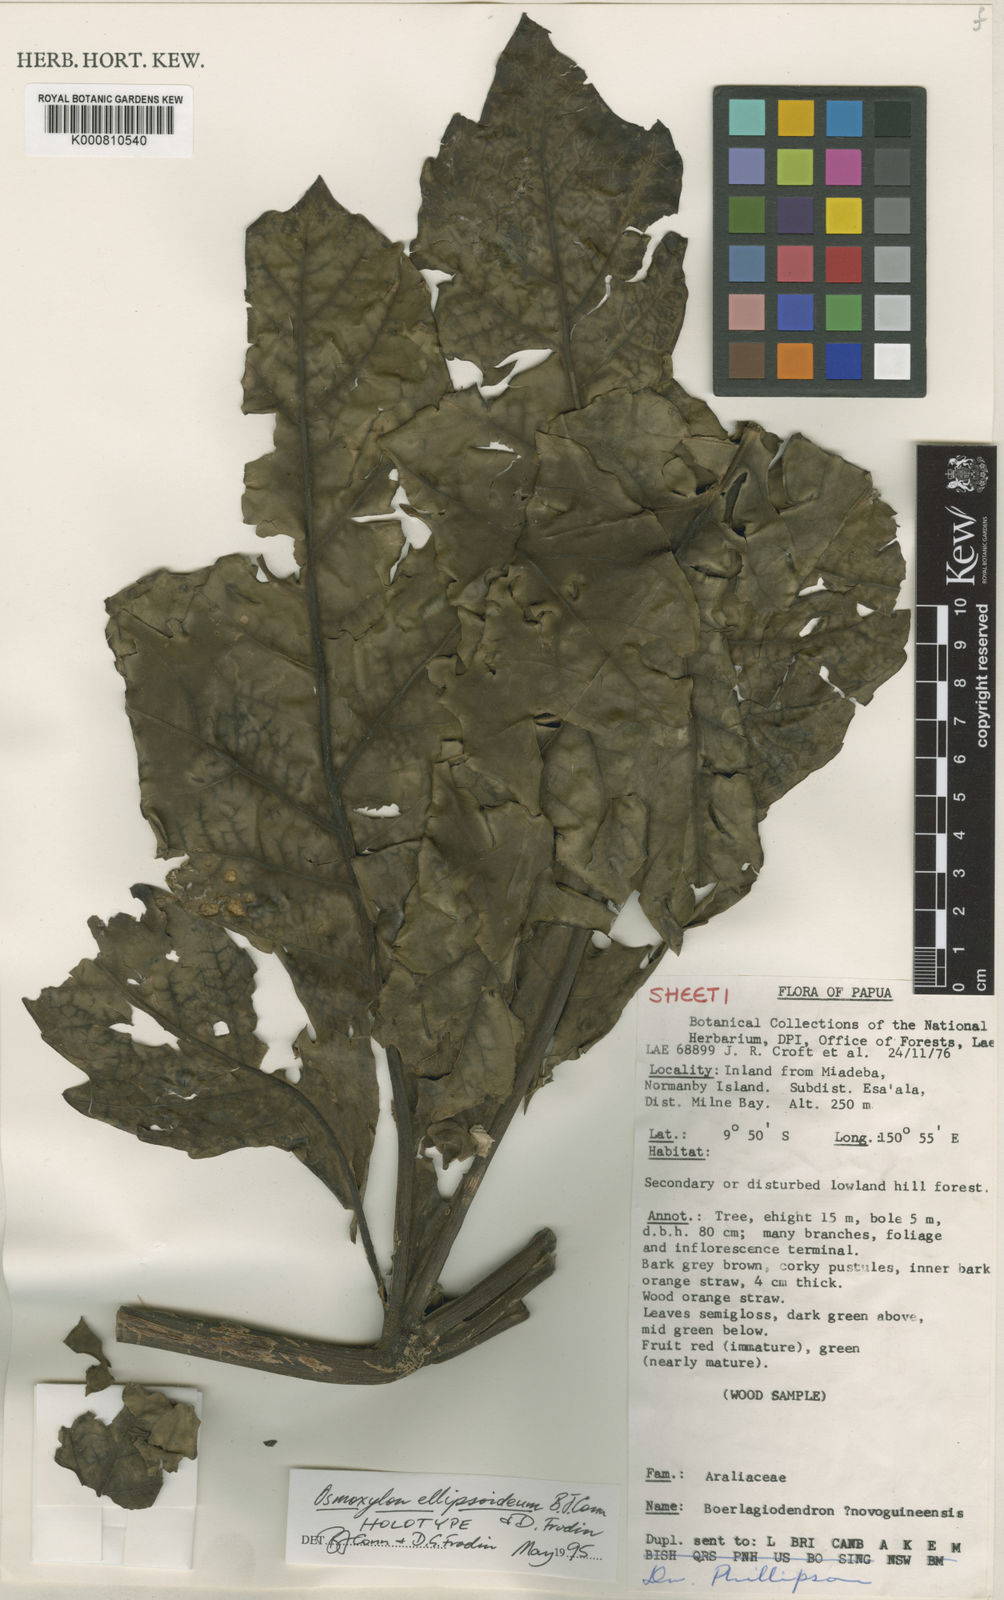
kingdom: Plantae
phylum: Tracheophyta
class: Magnoliopsida
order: Apiales
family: Araliaceae
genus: Osmoxylon
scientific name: Osmoxylon ellipsoideum
